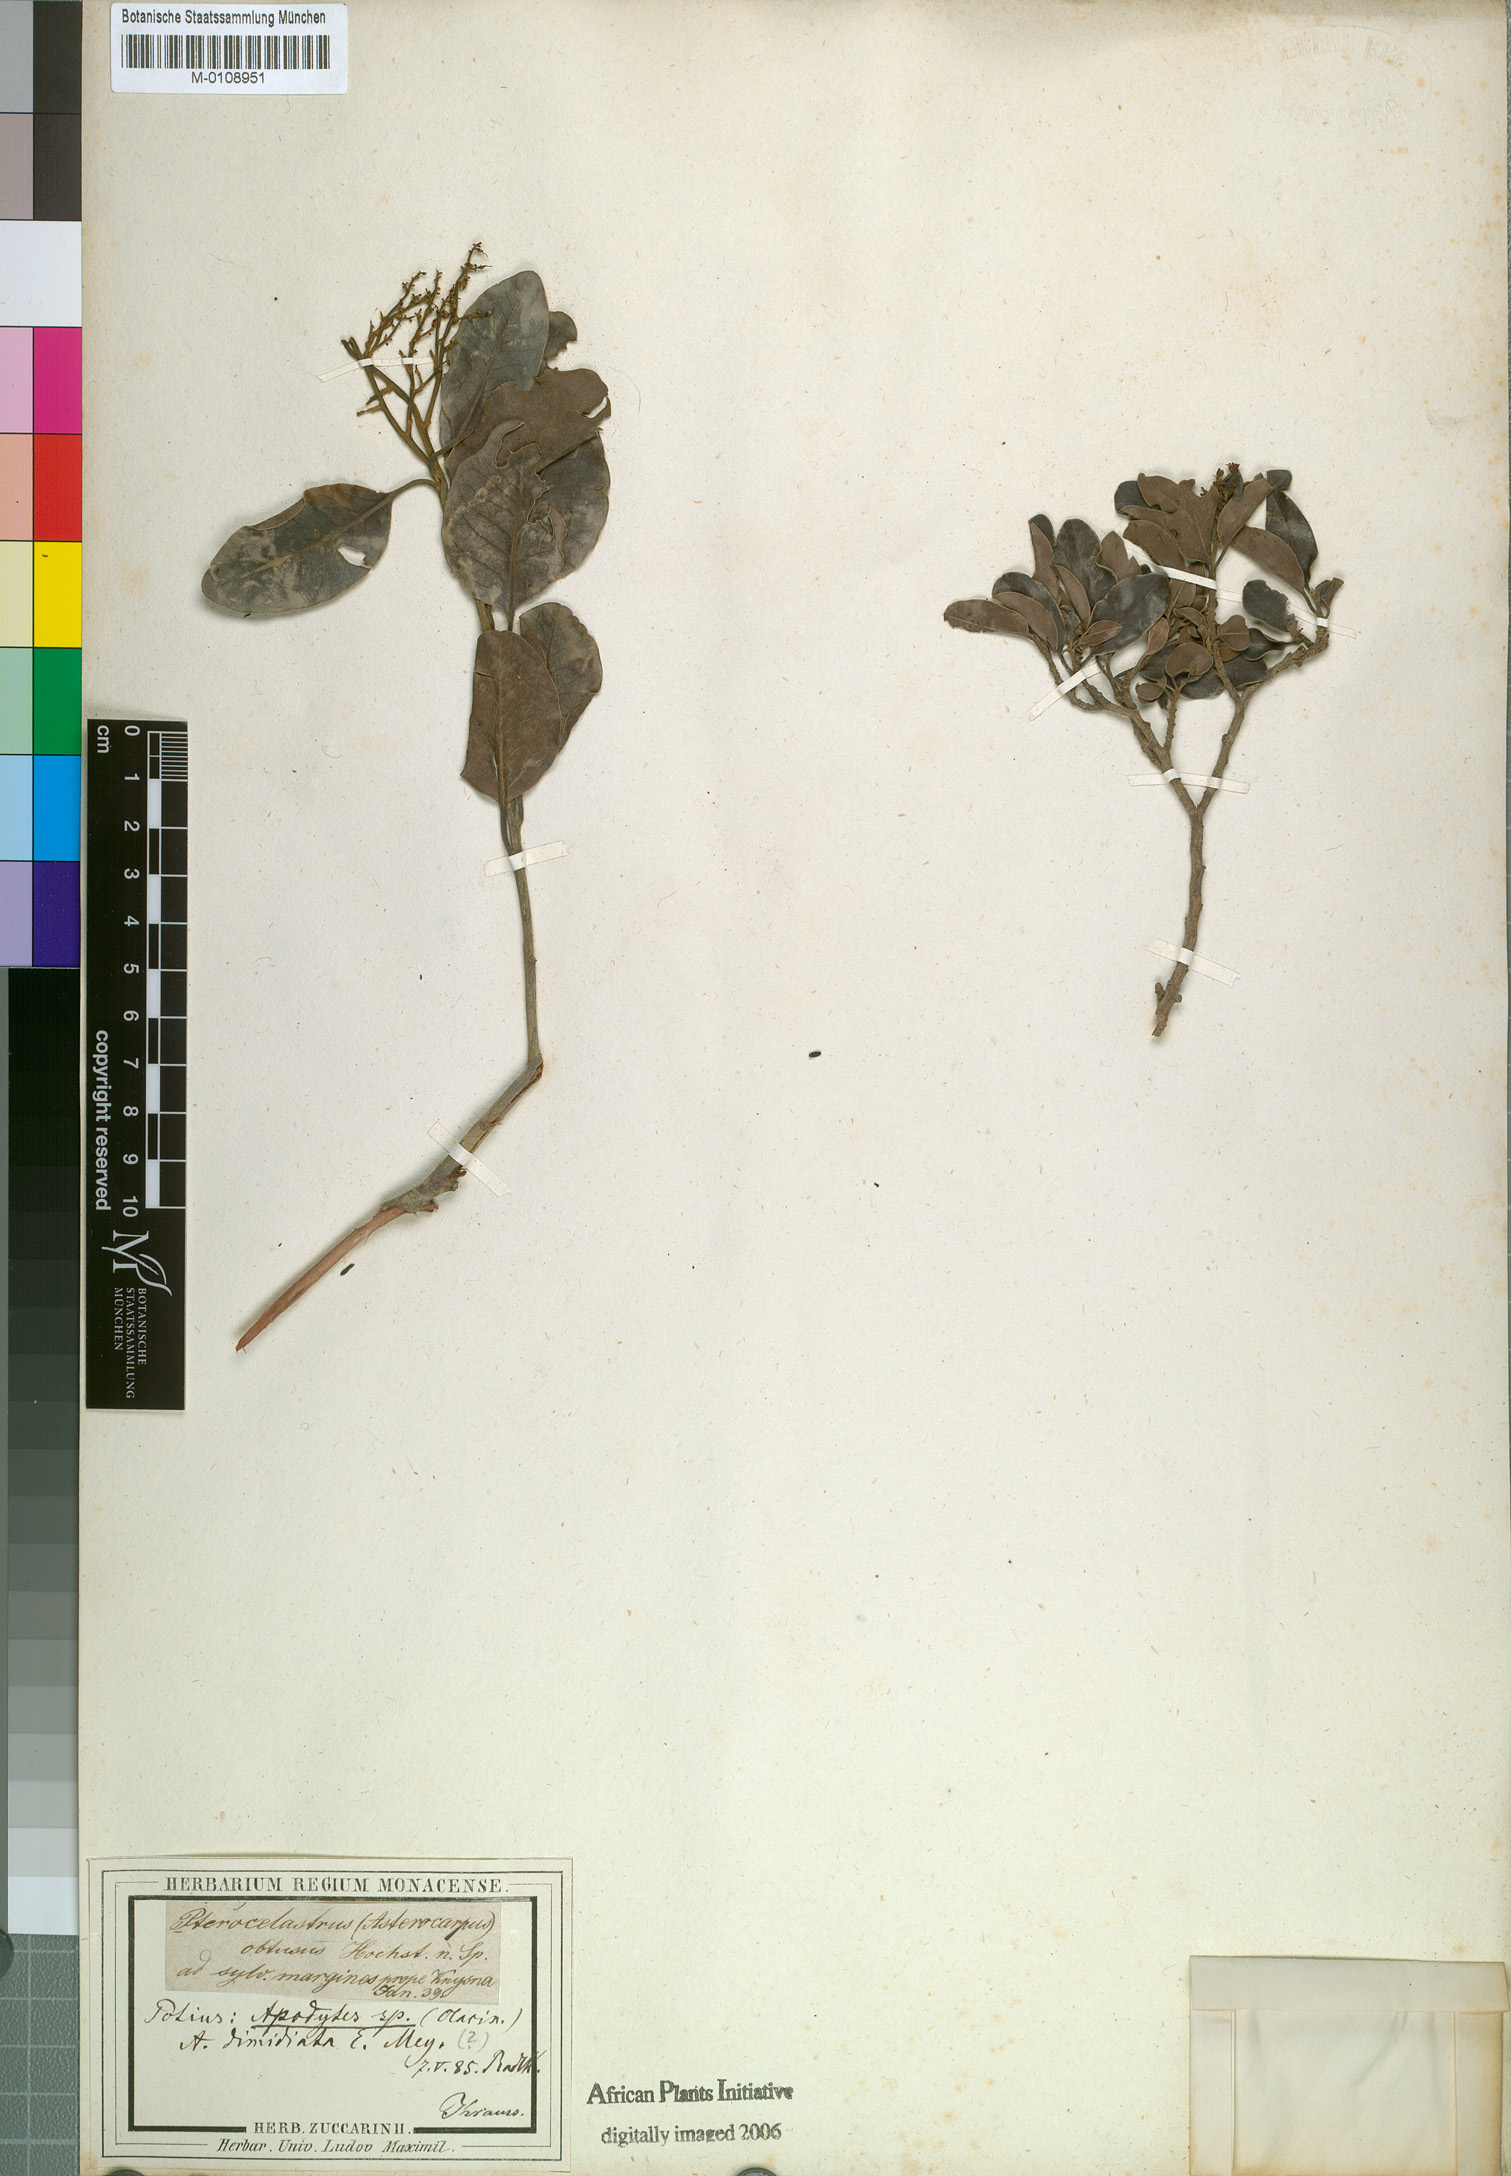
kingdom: Plantae
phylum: Tracheophyta
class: Magnoliopsida
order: Metteniusales
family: Metteniusaceae
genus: Apodytes
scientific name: Apodytes dimidiata
